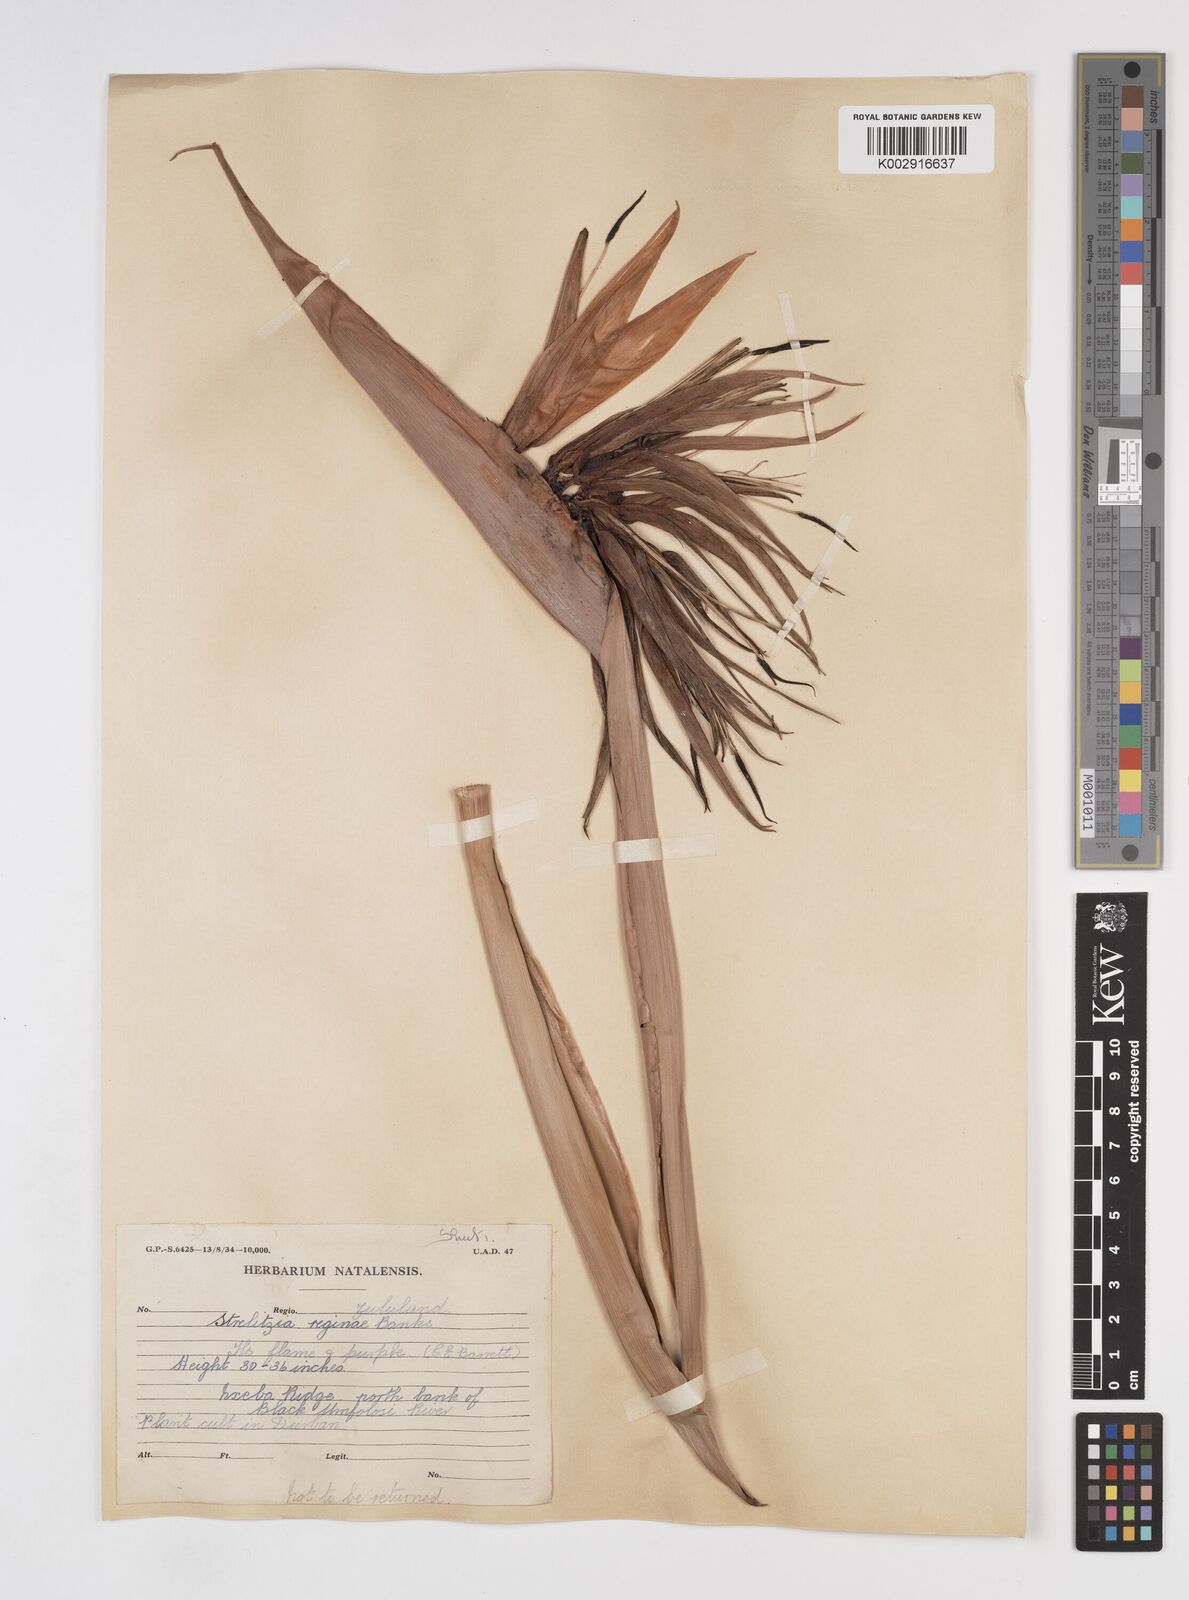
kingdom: Plantae
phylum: Tracheophyta
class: Liliopsida
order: Zingiberales
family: Strelitziaceae
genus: Strelitzia
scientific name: Strelitzia reginae
